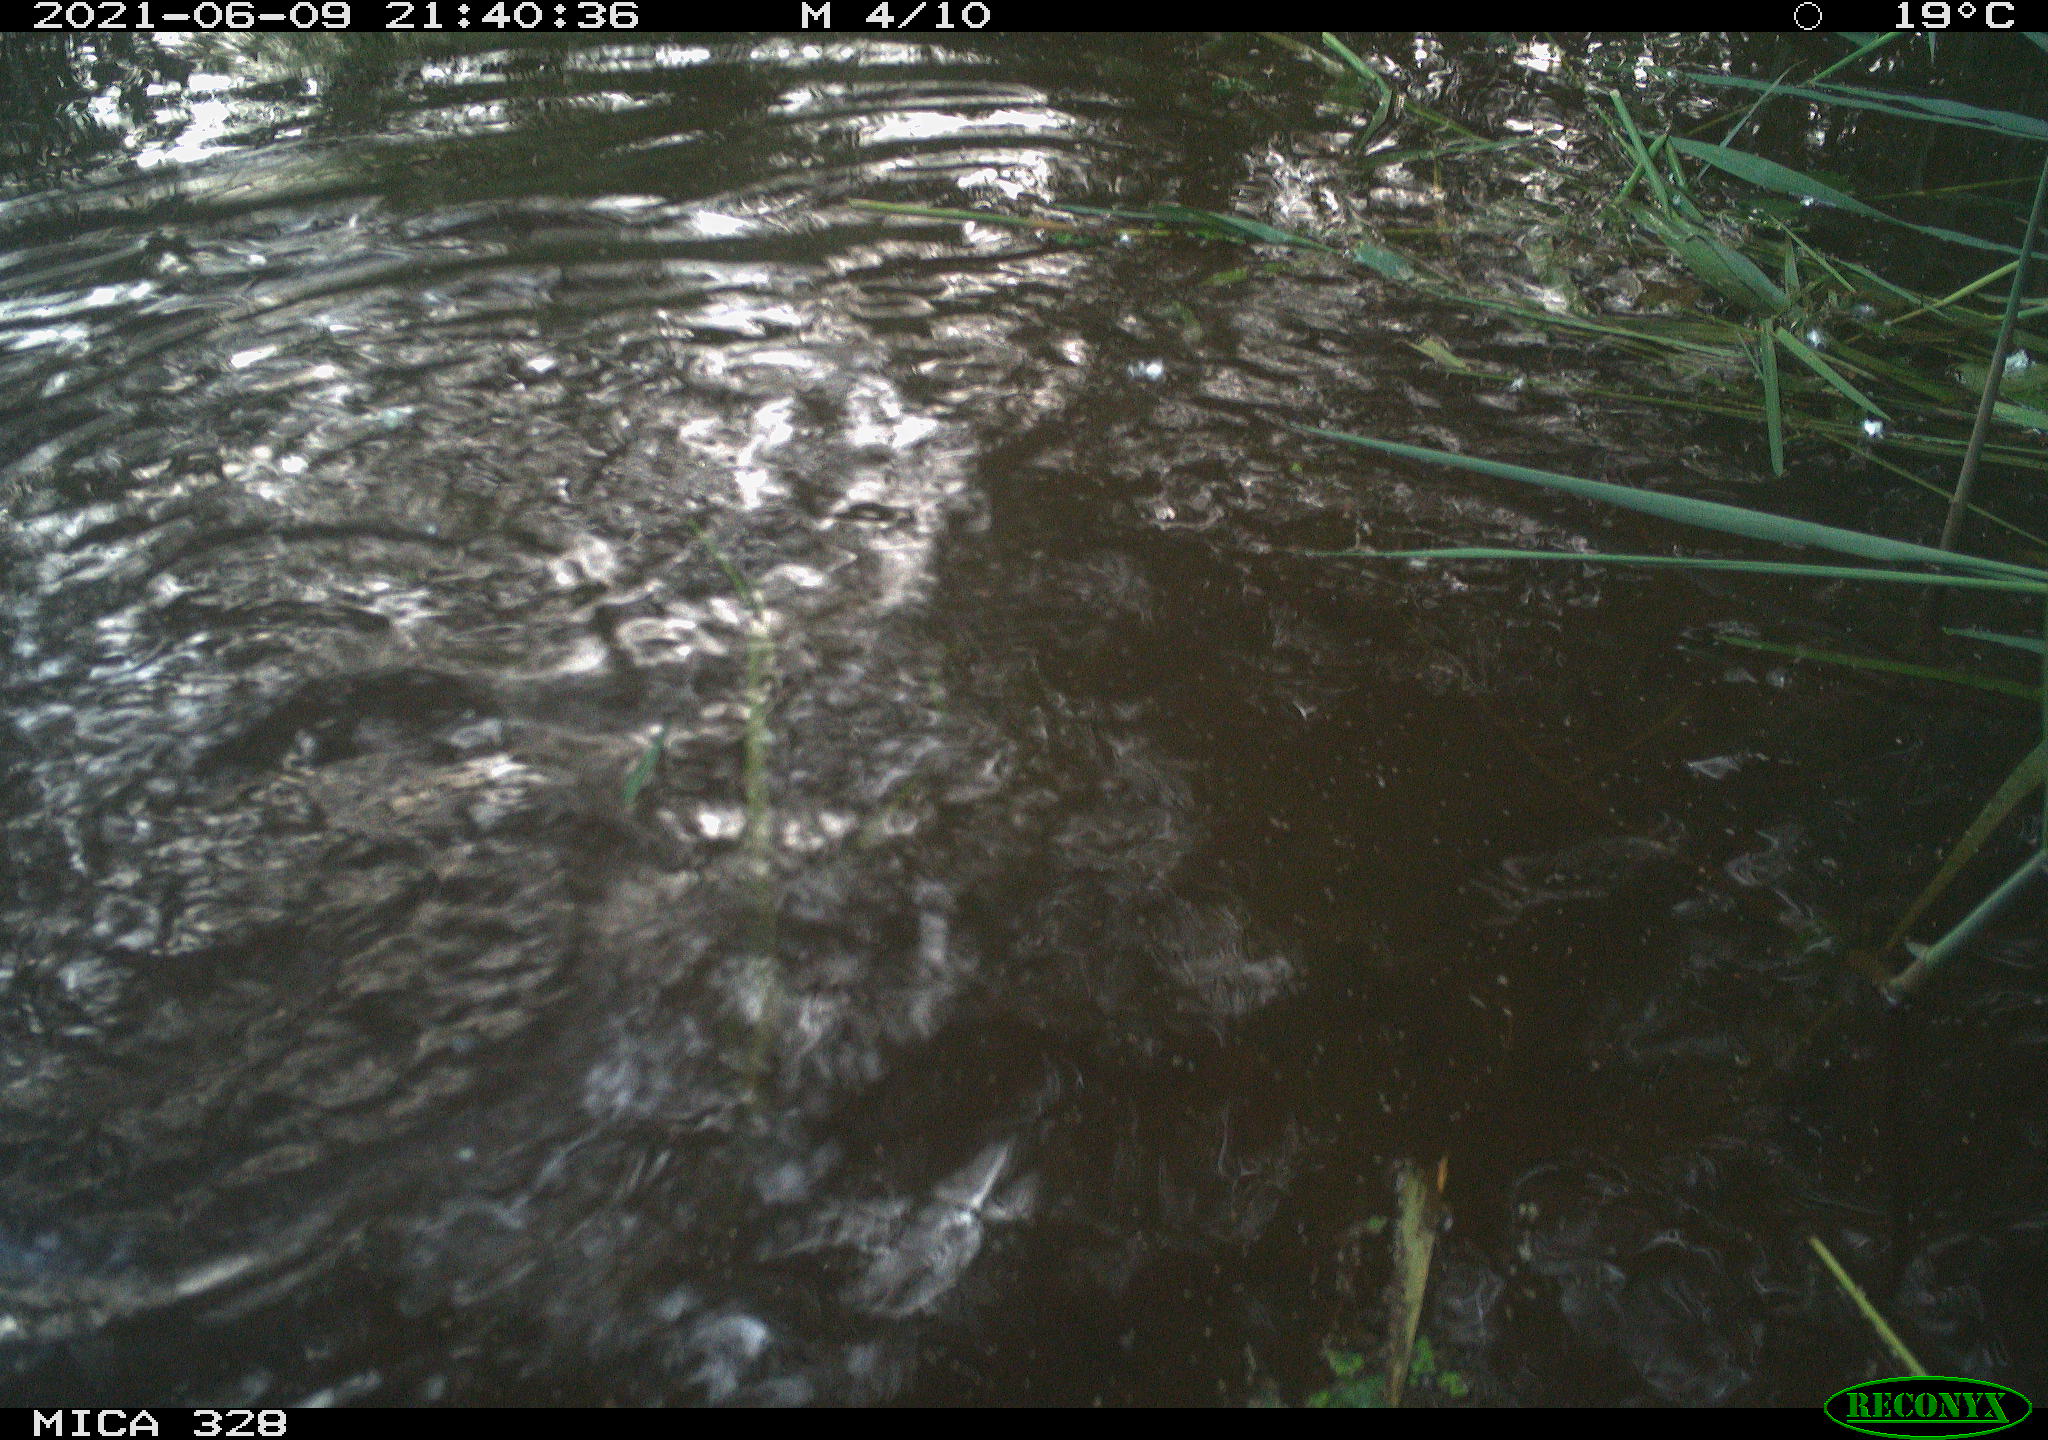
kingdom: Animalia
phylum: Chordata
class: Mammalia
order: Rodentia
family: Cricetidae
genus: Ondatra
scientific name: Ondatra zibethicus
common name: Muskrat
